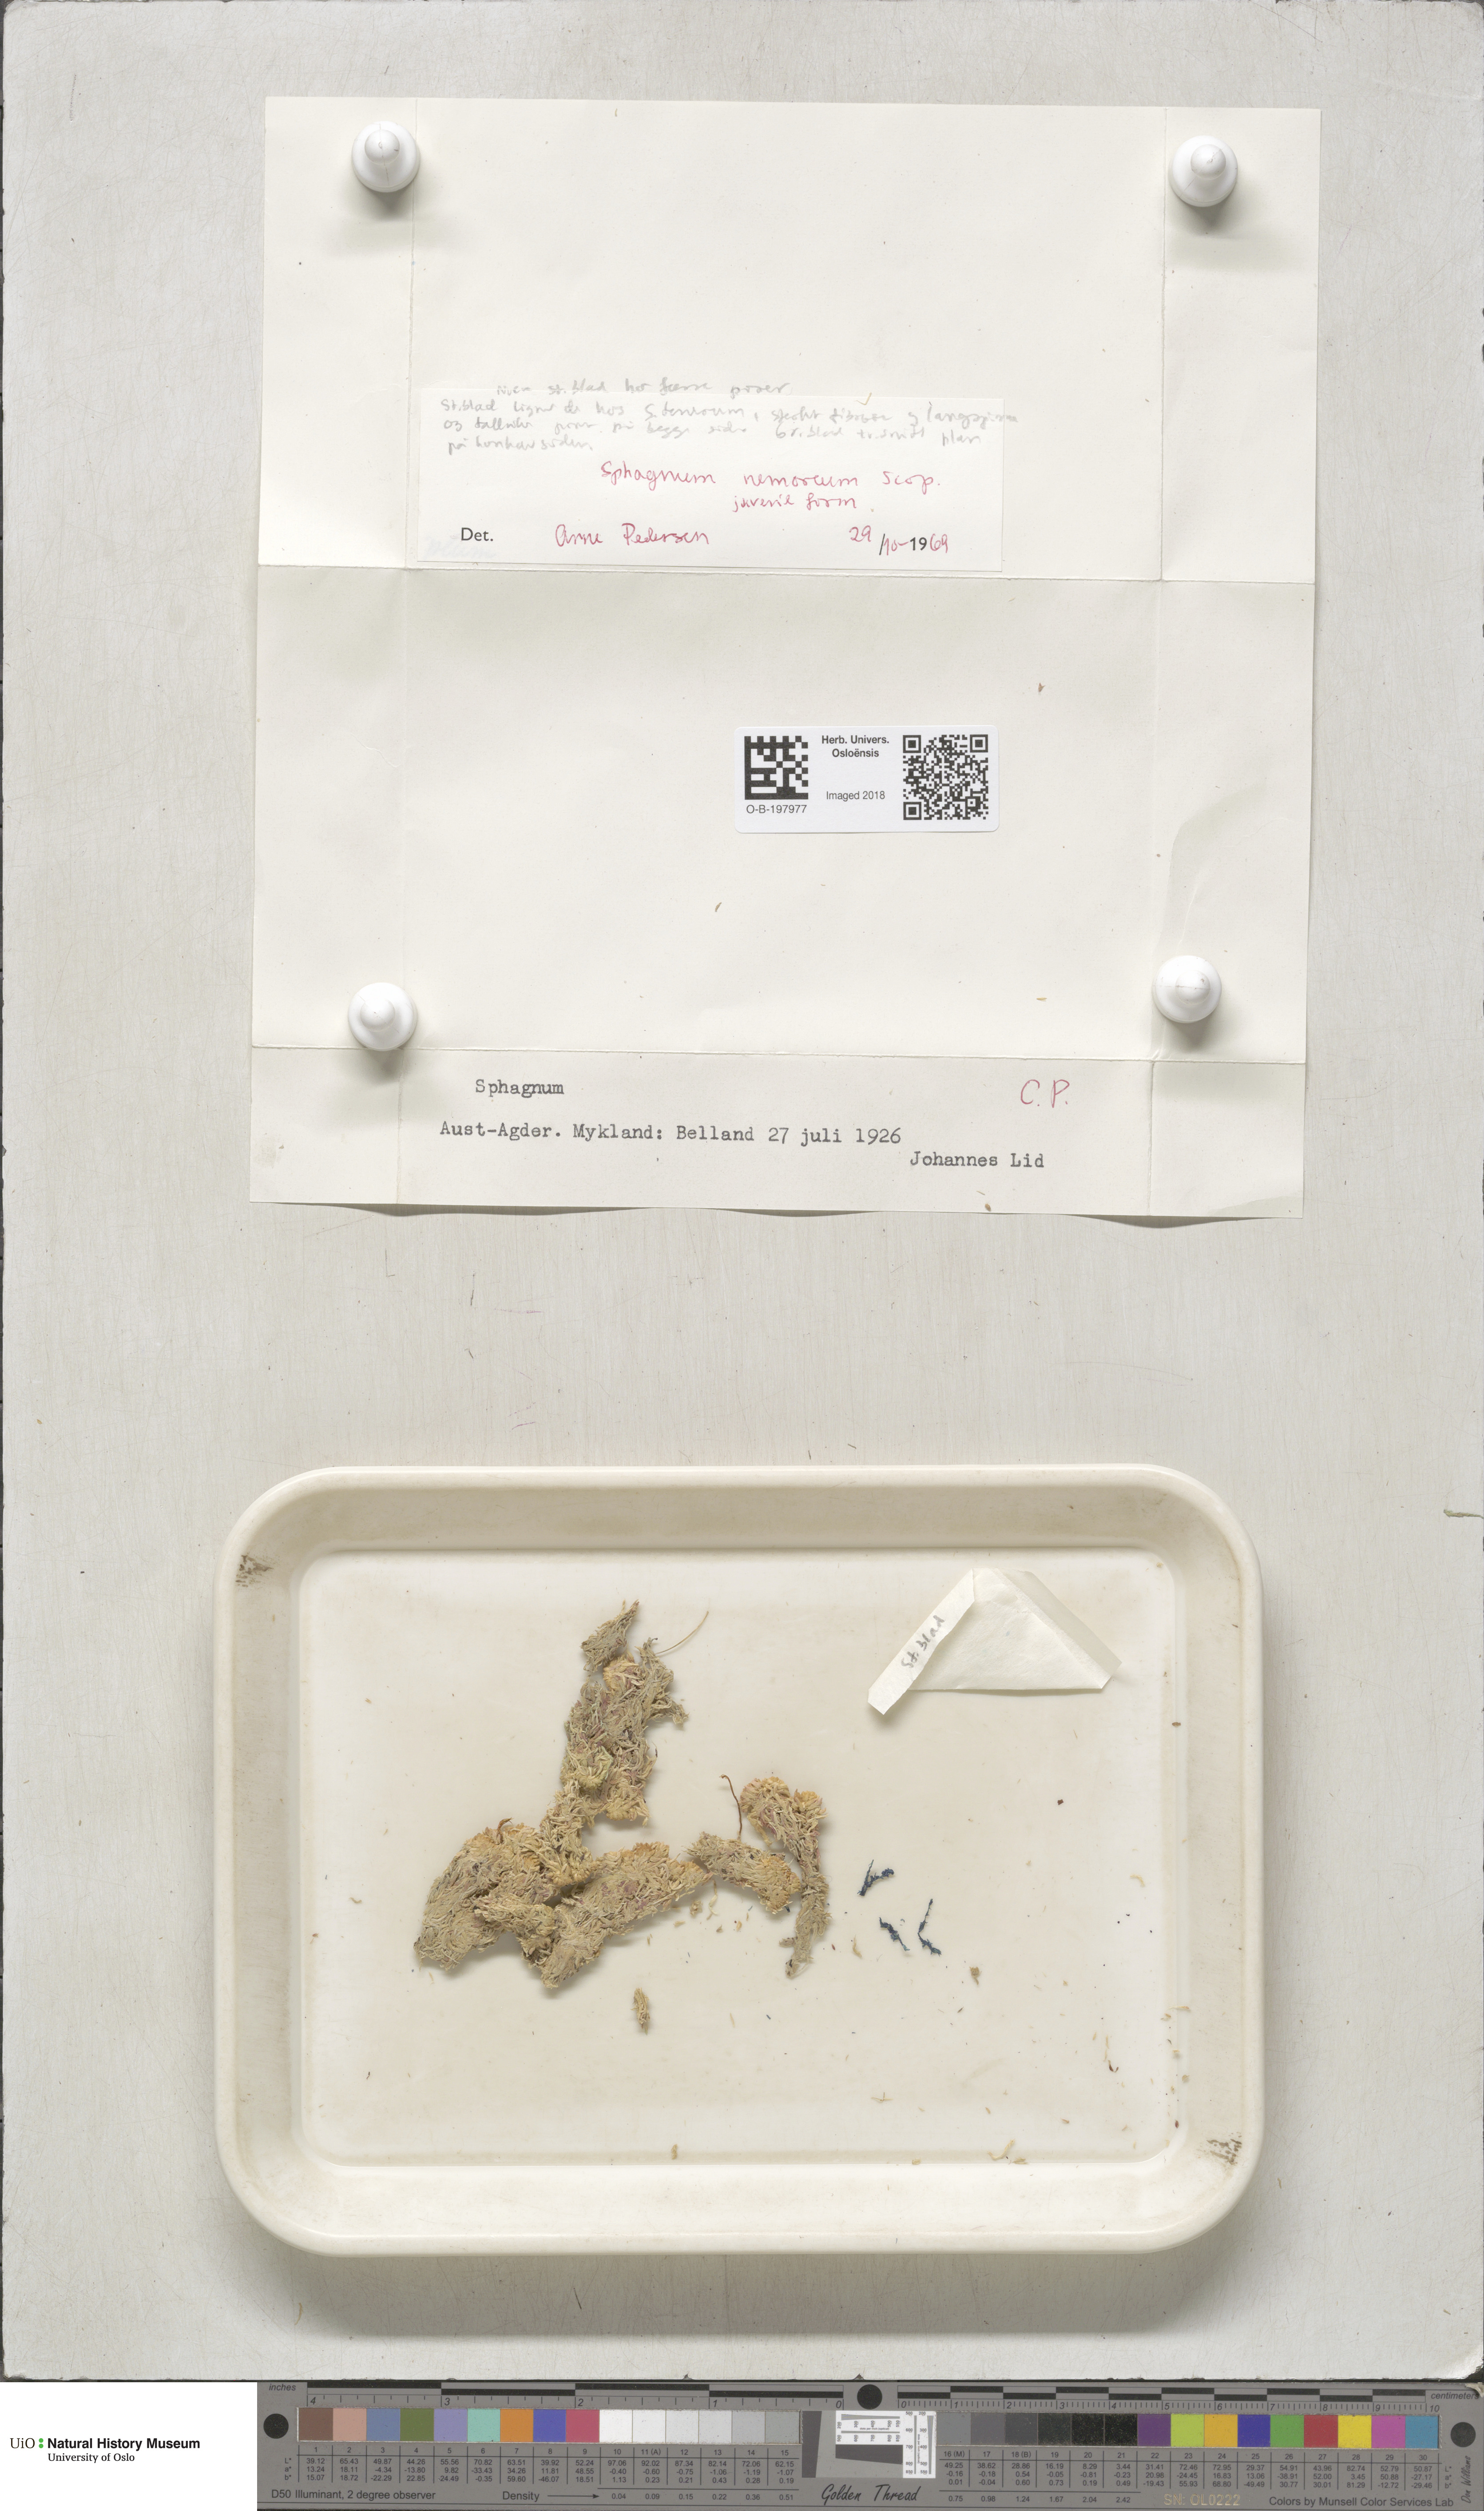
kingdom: Plantae
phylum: Bryophyta
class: Sphagnopsida
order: Sphagnales
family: Sphagnaceae
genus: Sphagnum
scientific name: Sphagnum capillifolium
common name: Small red peat moss
